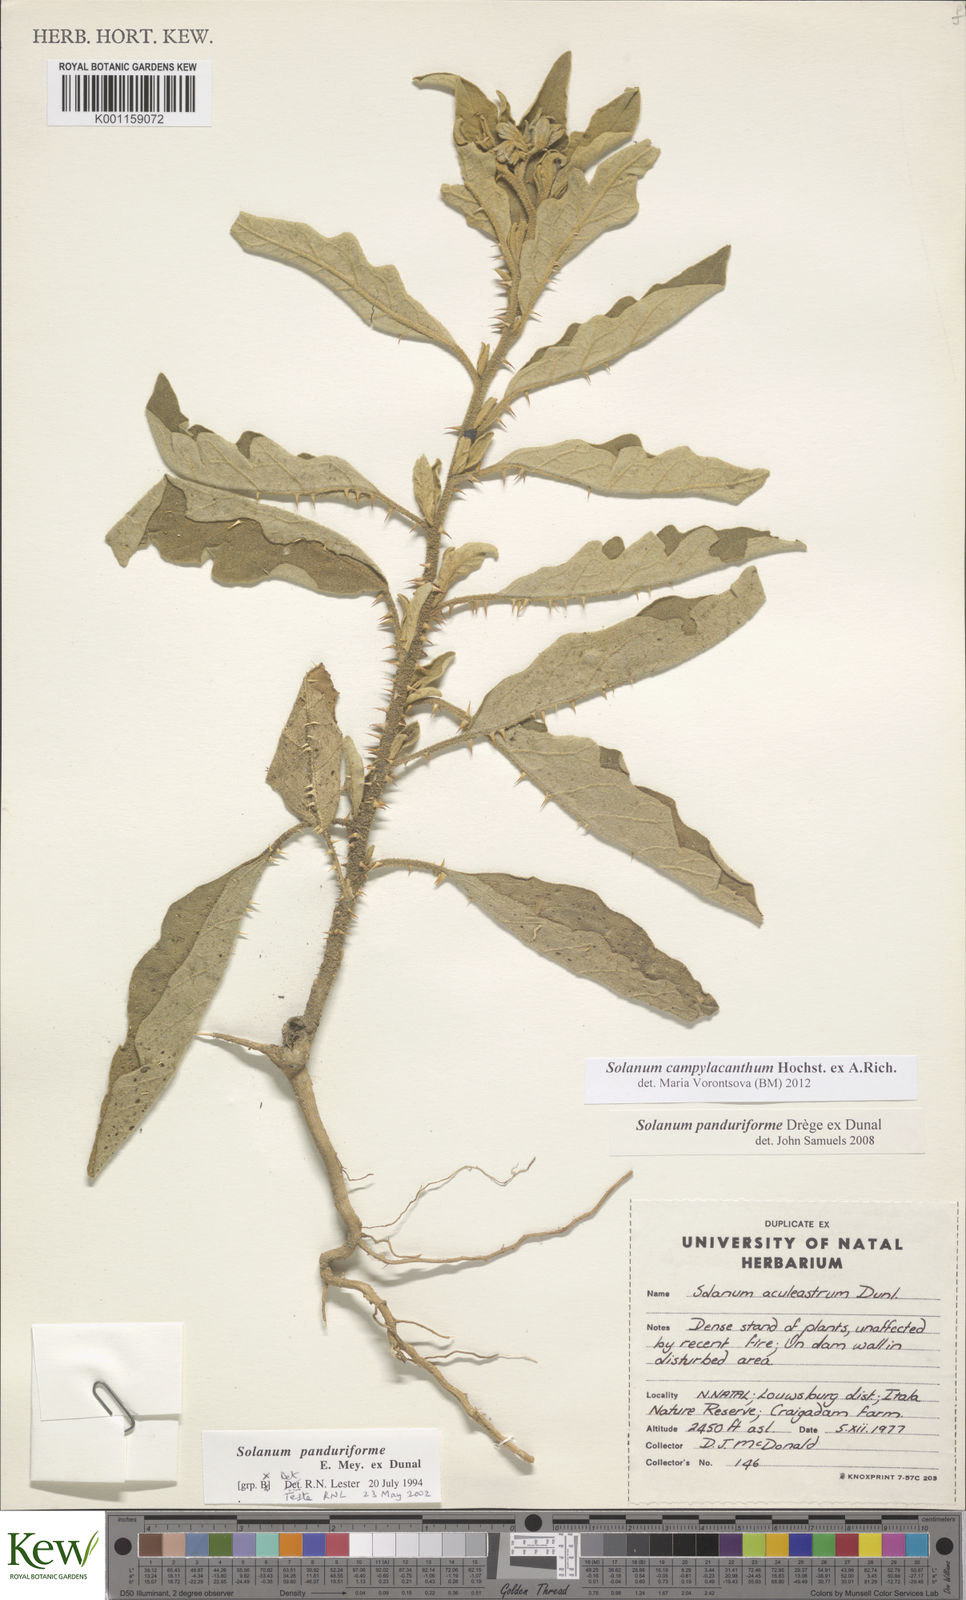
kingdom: Plantae
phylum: Tracheophyta
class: Magnoliopsida
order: Solanales
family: Solanaceae
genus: Solanum
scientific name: Solanum campylacanthum
